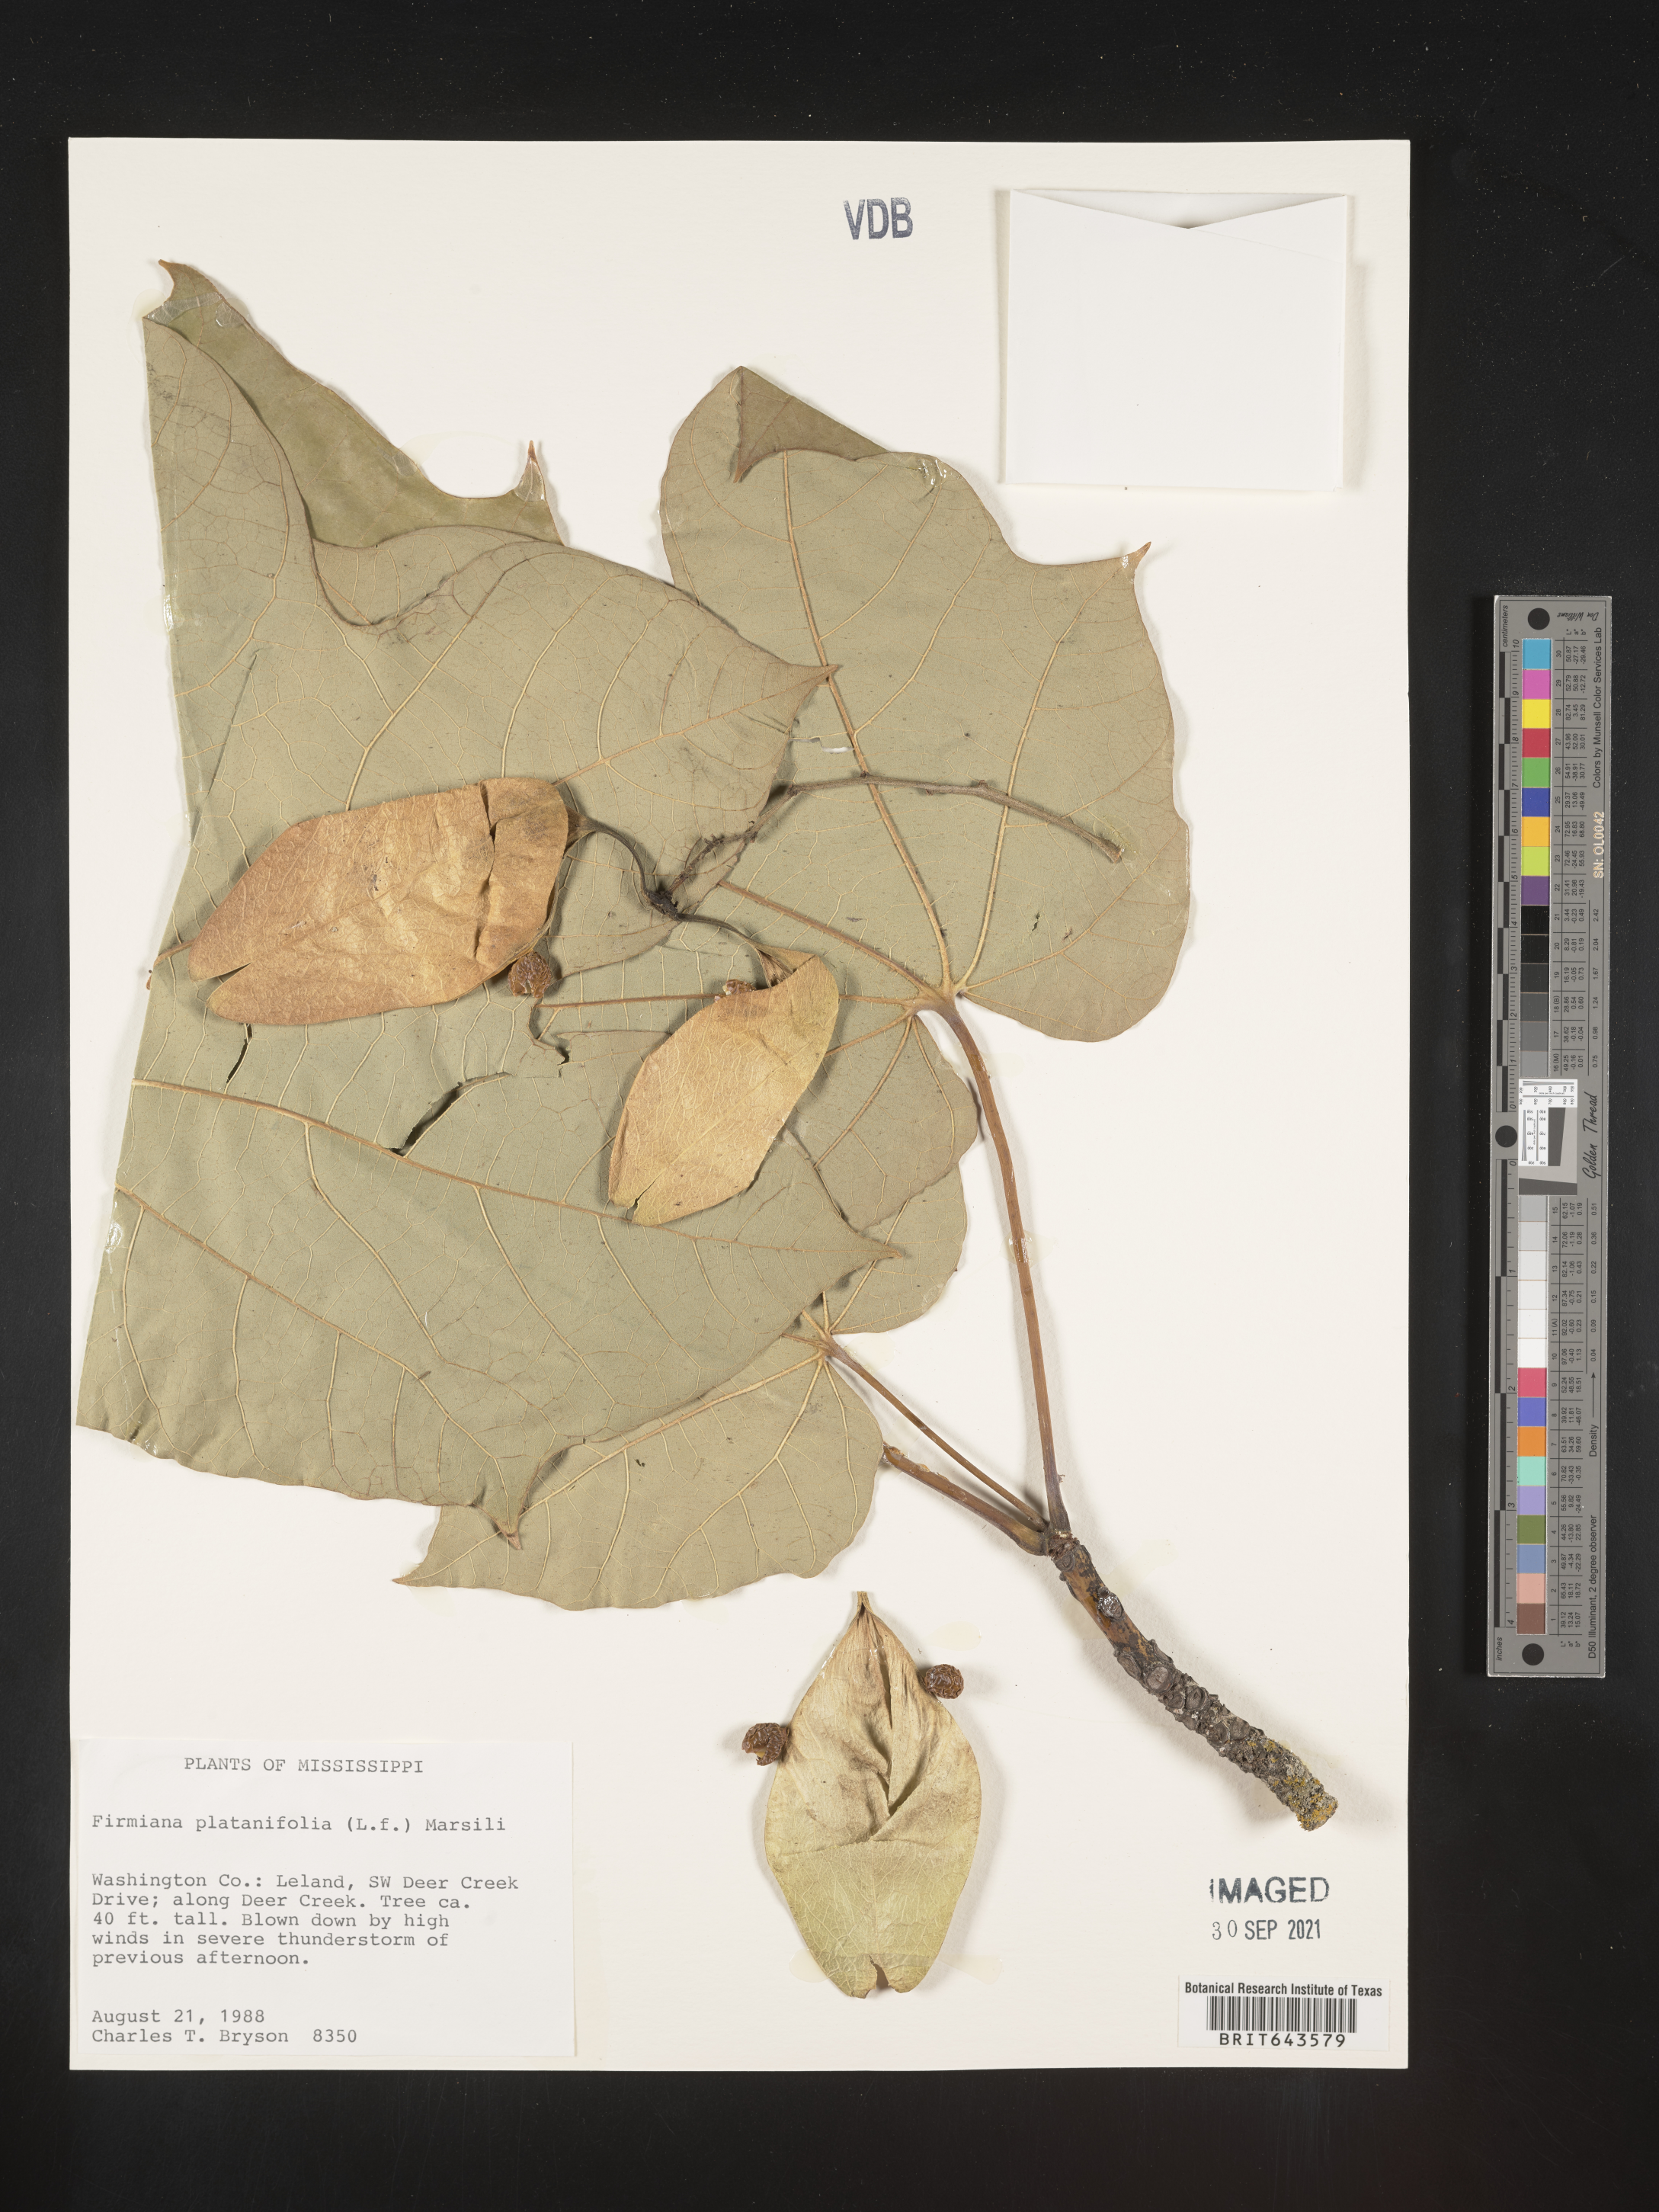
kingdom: Plantae
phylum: Tracheophyta
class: Magnoliopsida
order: Malvales
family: Malvaceae
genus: Firmiana
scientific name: Firmiana
